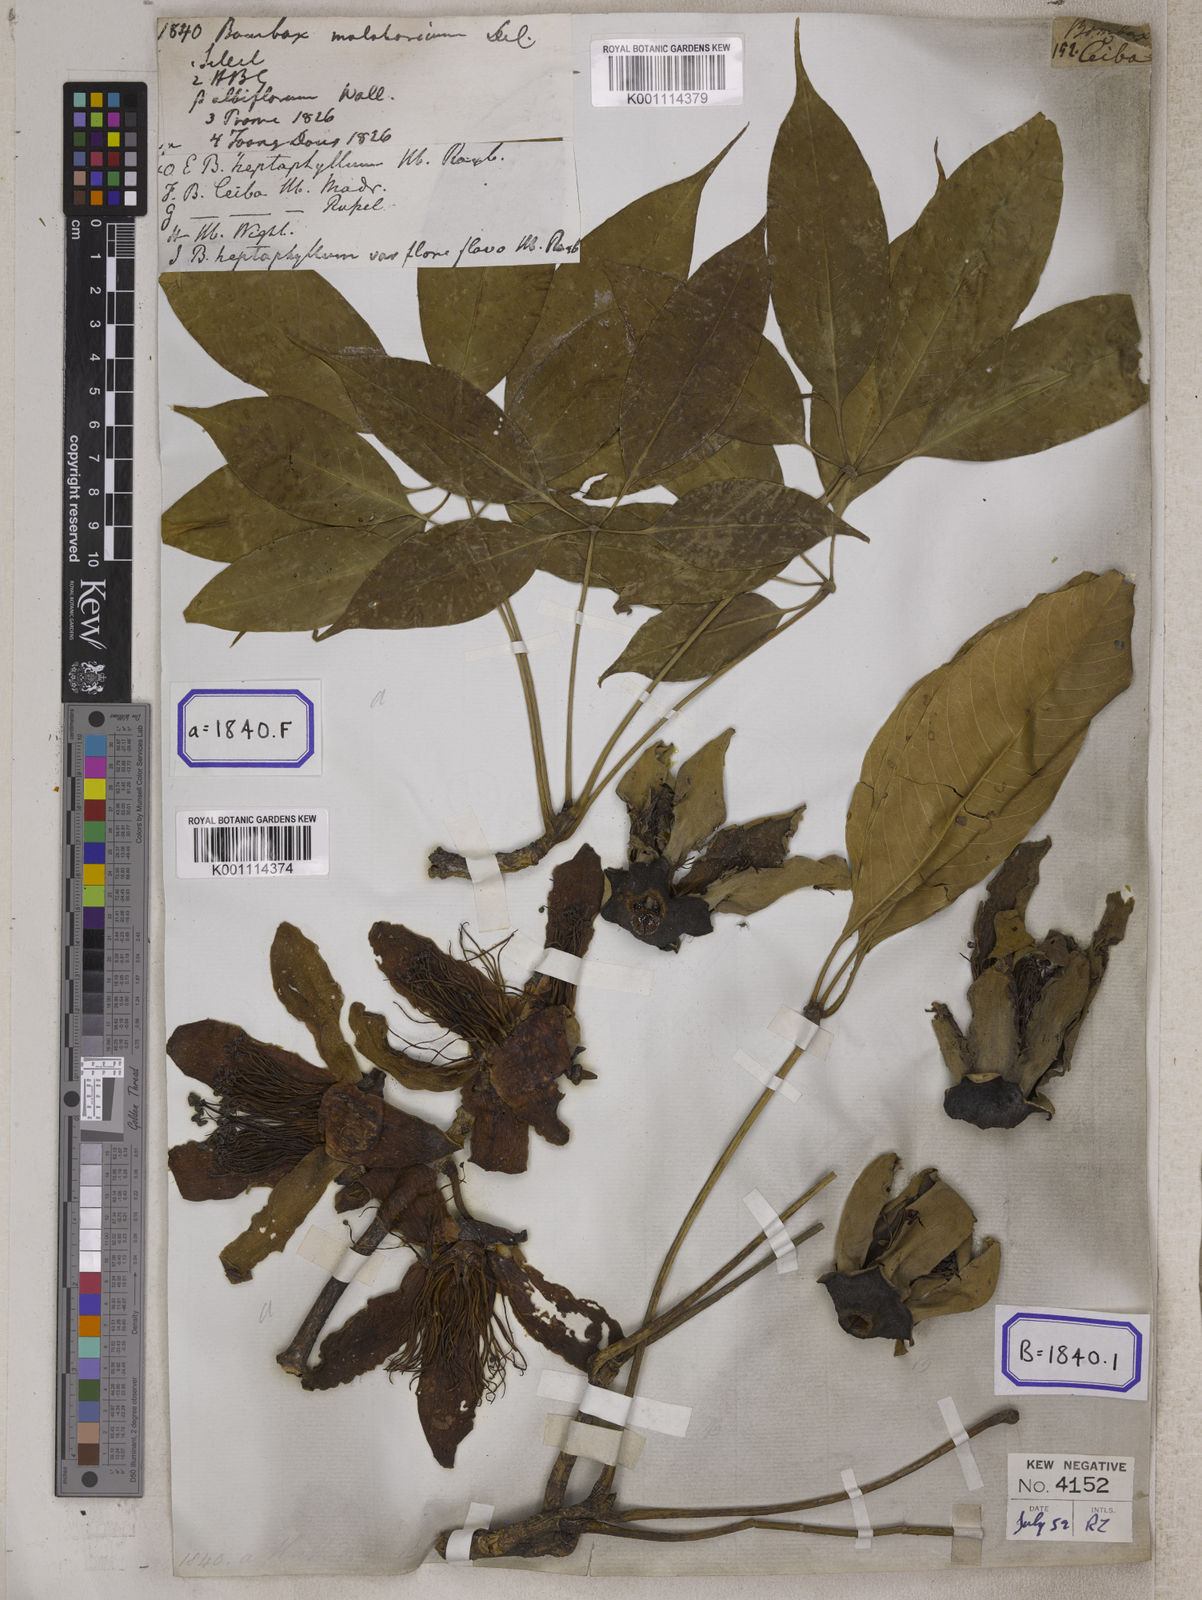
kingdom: Plantae
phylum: Tracheophyta
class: Magnoliopsida
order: Malvales
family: Malvaceae
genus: Bombax
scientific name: Bombax ceiba
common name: Northern-cottonwood
